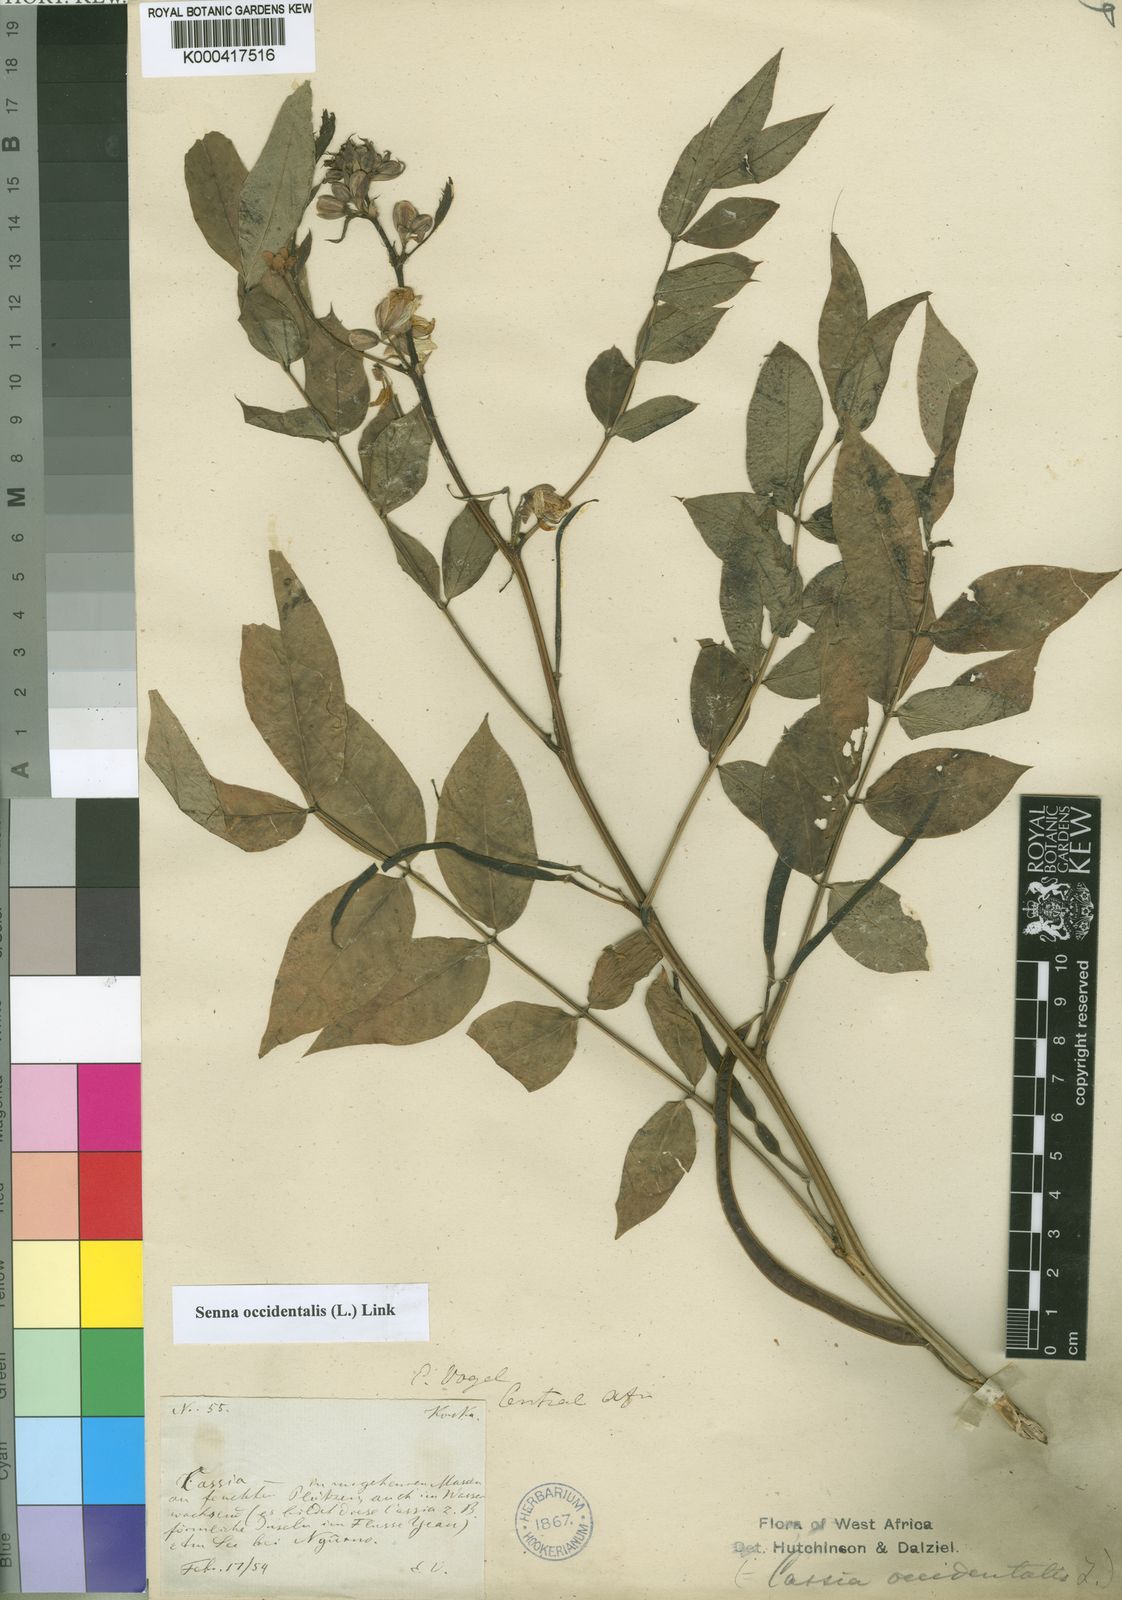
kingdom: Plantae
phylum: Tracheophyta
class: Magnoliopsida
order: Fabales
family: Fabaceae
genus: Senna
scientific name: Senna occidentalis
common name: Septicweed
